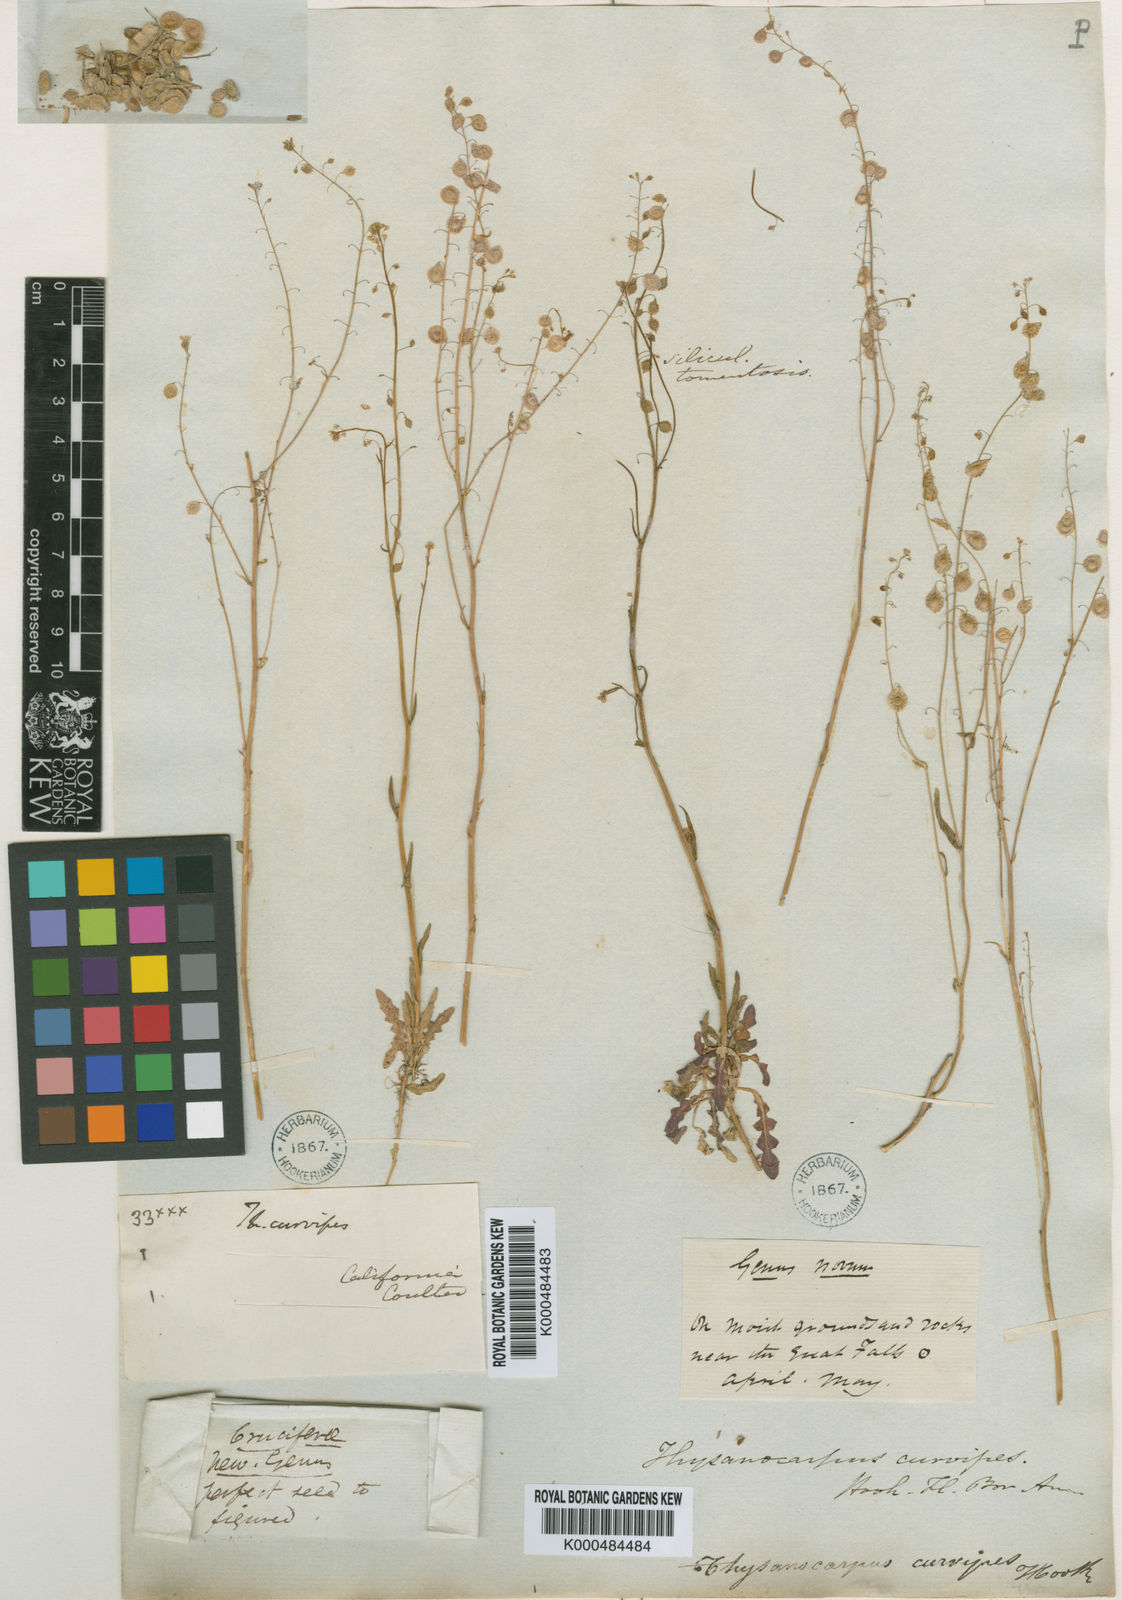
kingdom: Plantae
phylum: Tracheophyta
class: Magnoliopsida
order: Brassicales
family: Brassicaceae
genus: Thysanocarpus
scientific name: Thysanocarpus curvipes
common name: Sand fringepod
